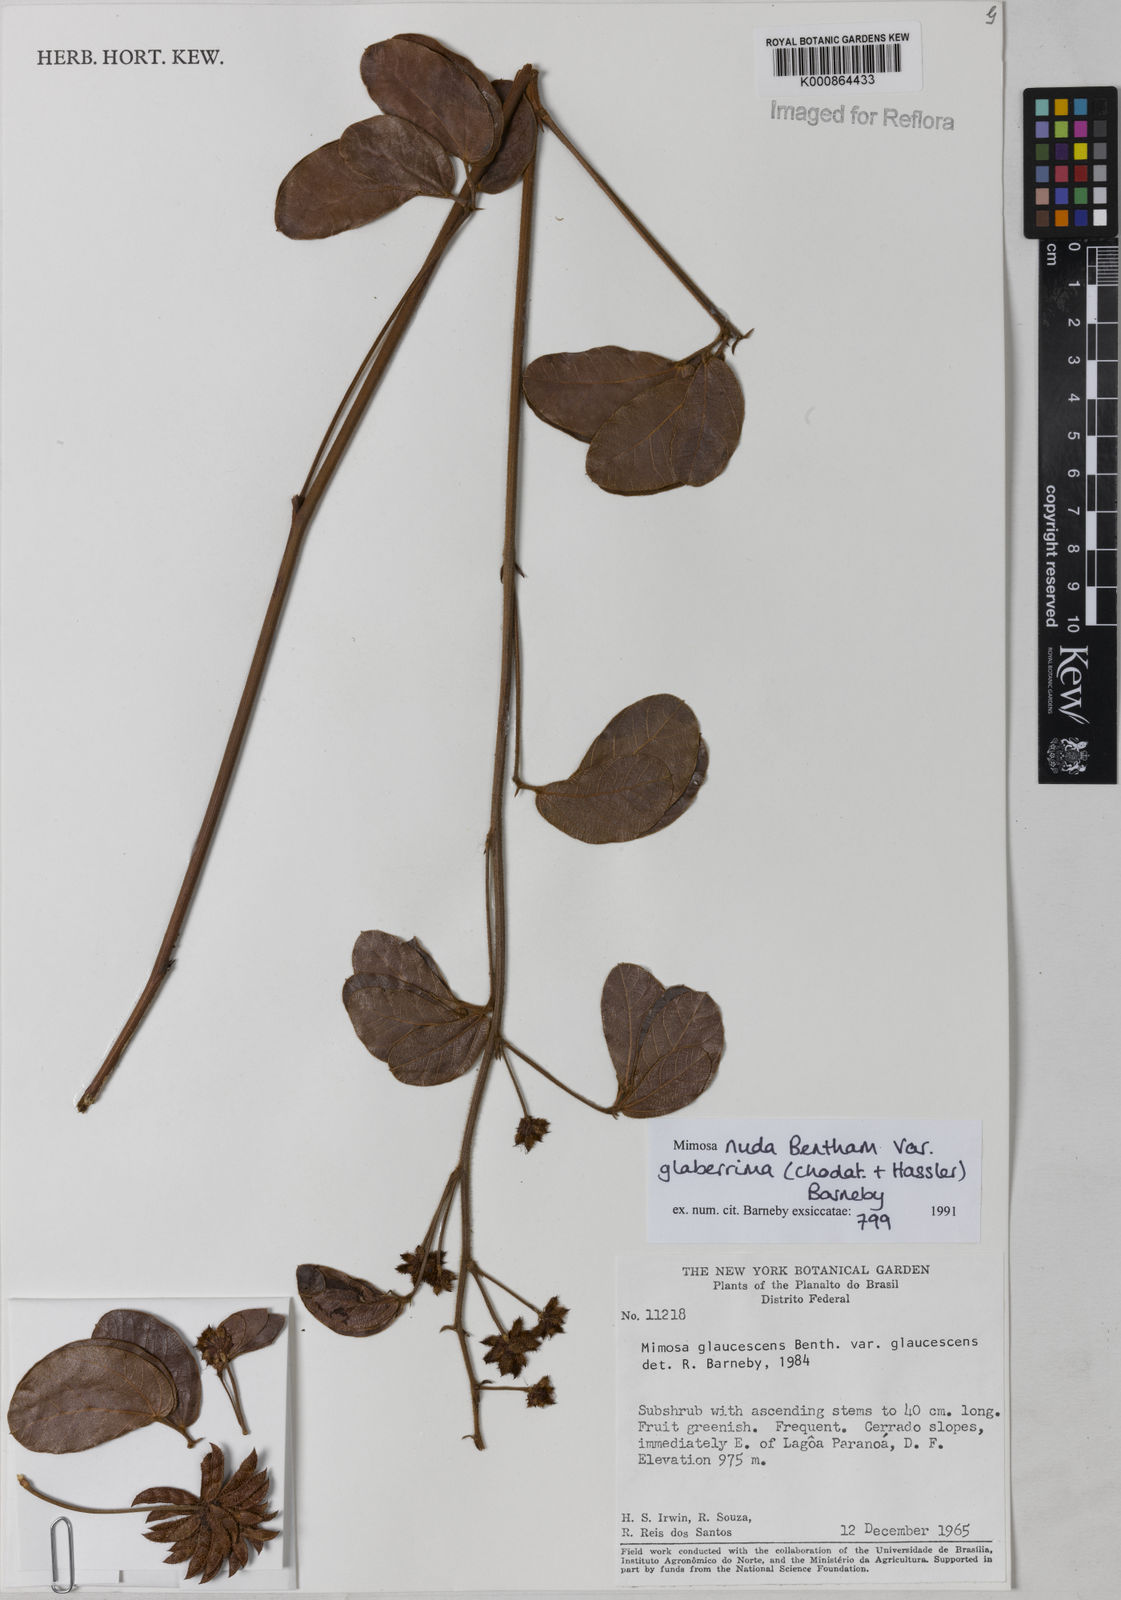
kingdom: Plantae
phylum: Tracheophyta
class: Magnoliopsida
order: Fabales
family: Fabaceae
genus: Mimosa
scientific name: Mimosa debilis
